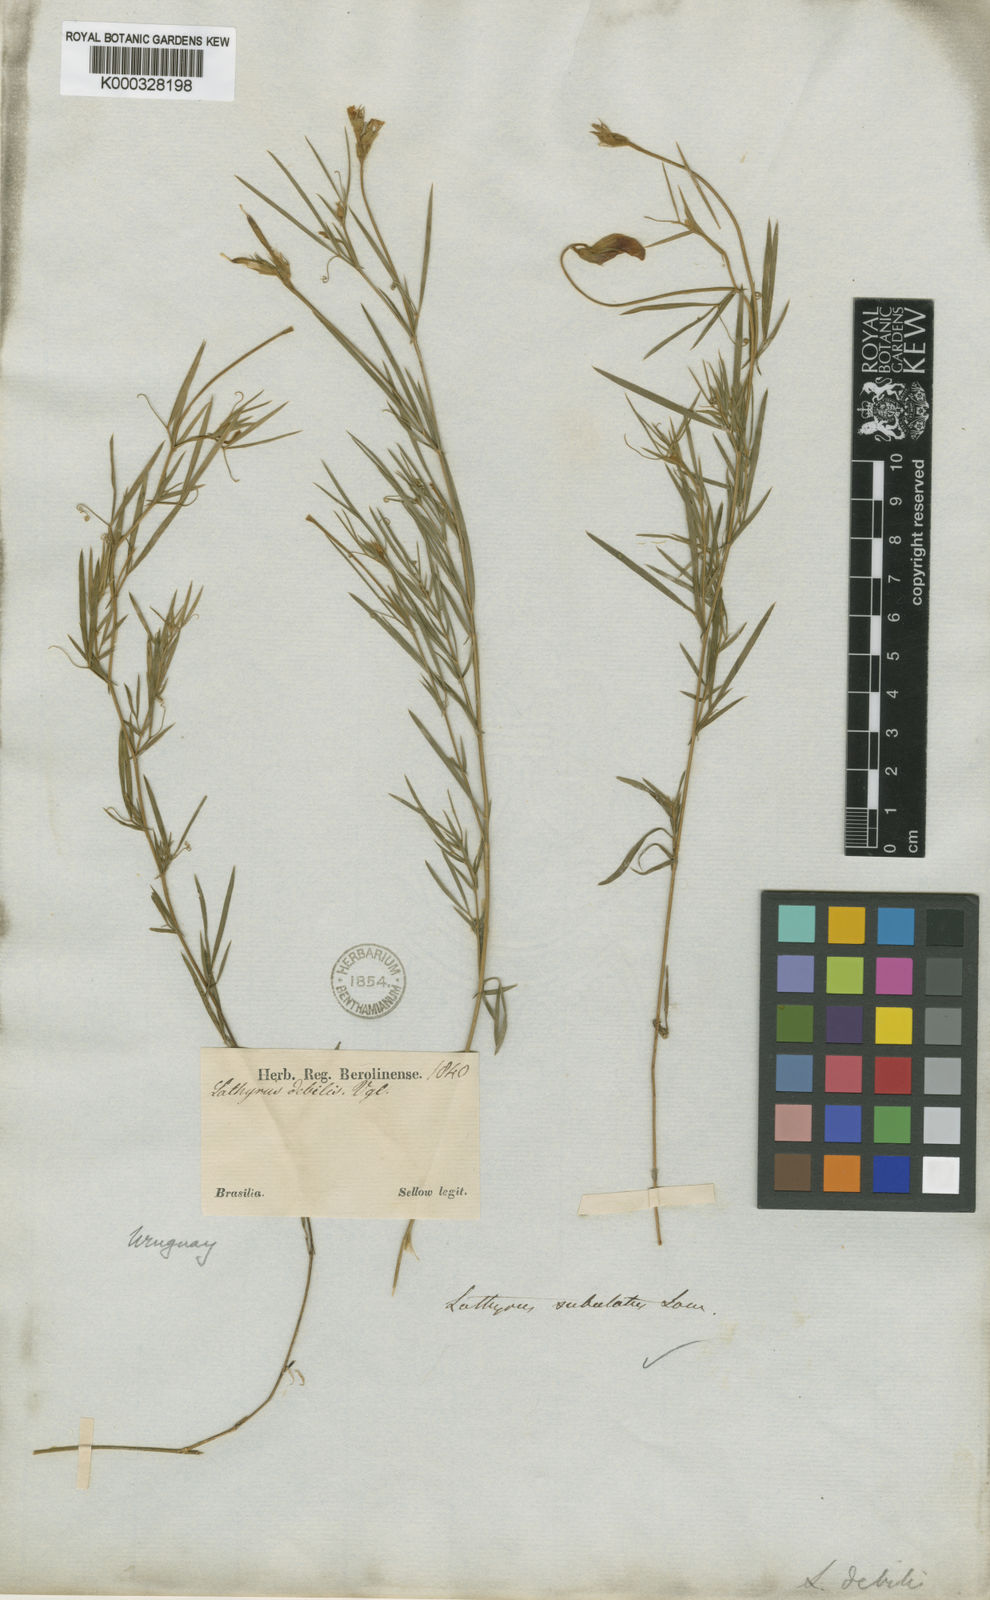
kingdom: Plantae
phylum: Tracheophyta
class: Magnoliopsida
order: Fabales
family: Fabaceae
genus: Lathyrus
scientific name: Lathyrus subulatus
